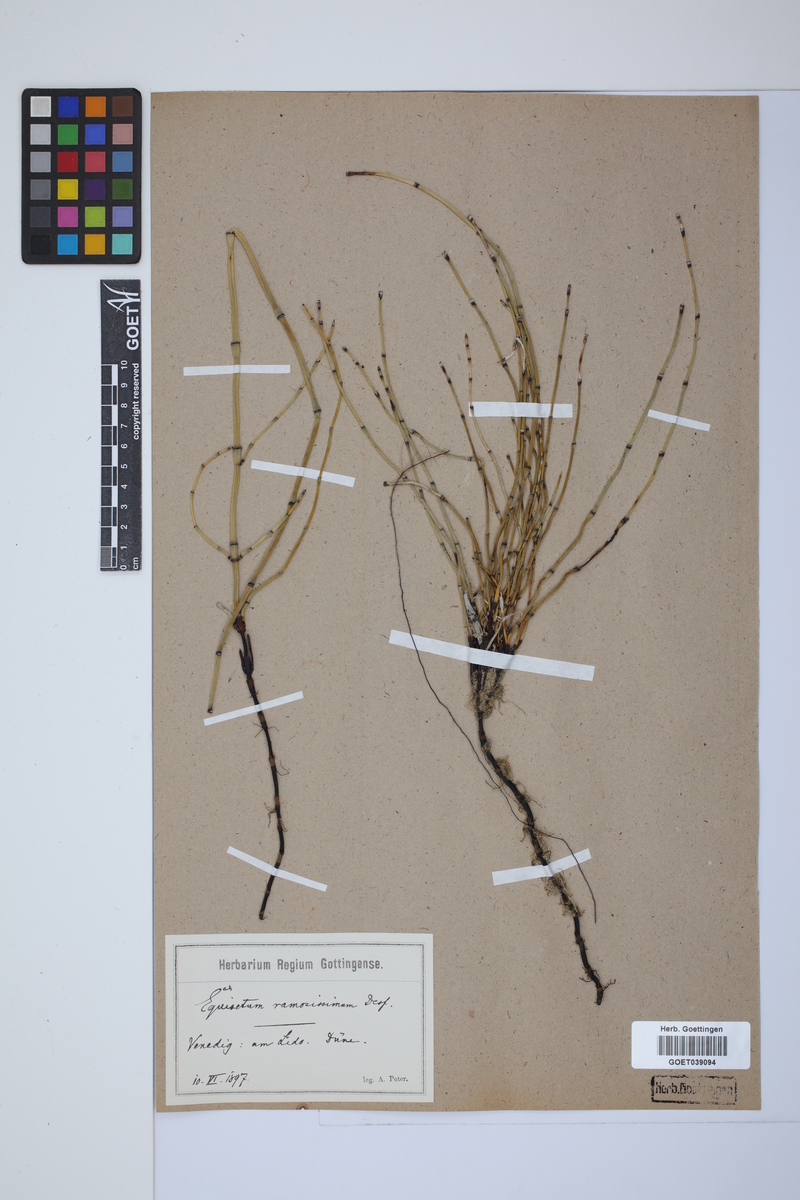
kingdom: Plantae
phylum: Tracheophyta
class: Polypodiopsida
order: Equisetales
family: Equisetaceae
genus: Equisetum
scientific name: Equisetum giganteum
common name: Giant horsetail
